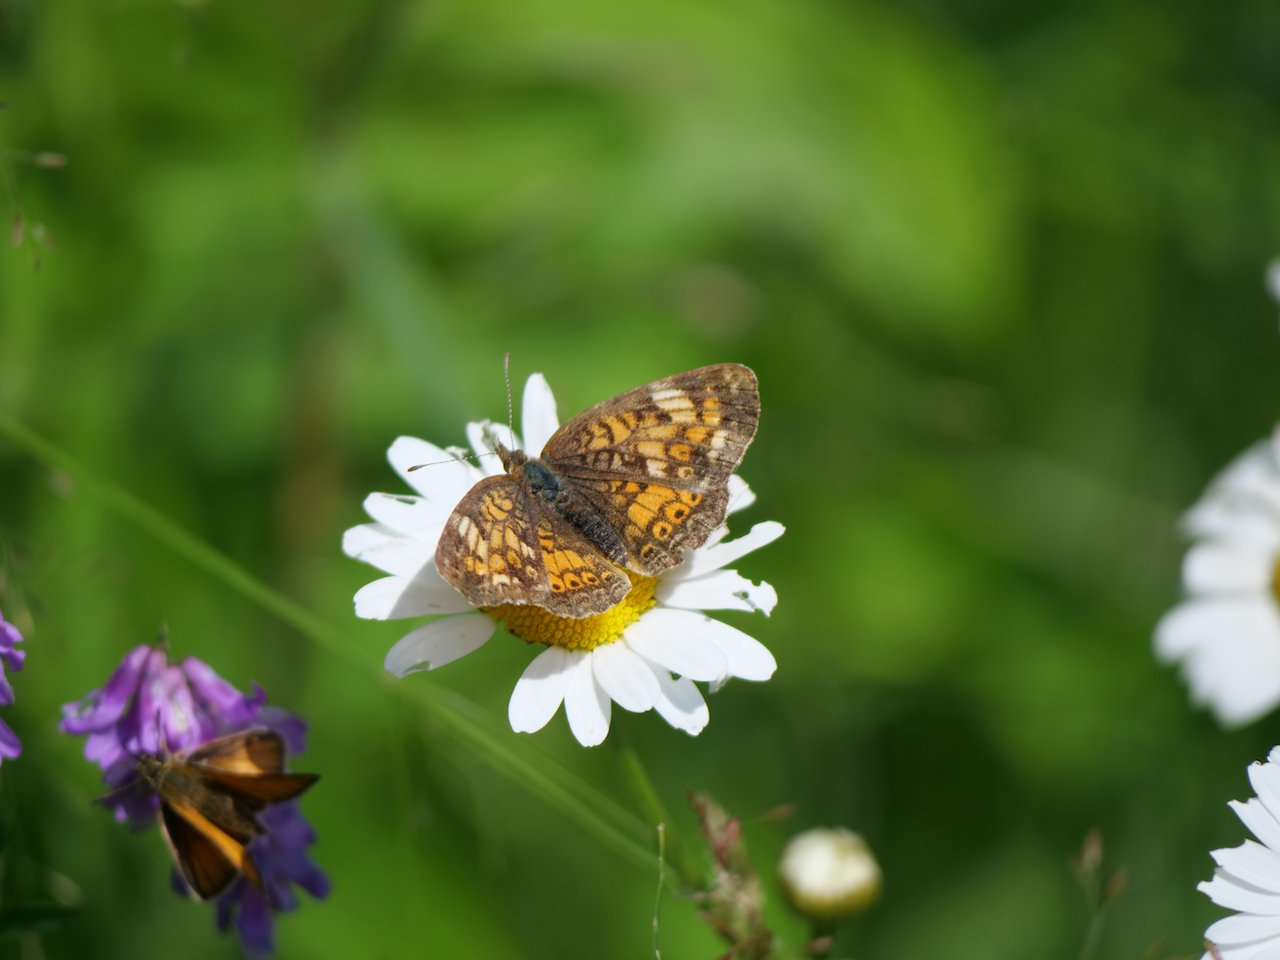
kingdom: Animalia
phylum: Arthropoda
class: Insecta
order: Lepidoptera
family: Nymphalidae
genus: Phyciodes
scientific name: Phyciodes tharos
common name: Northern Crescent
